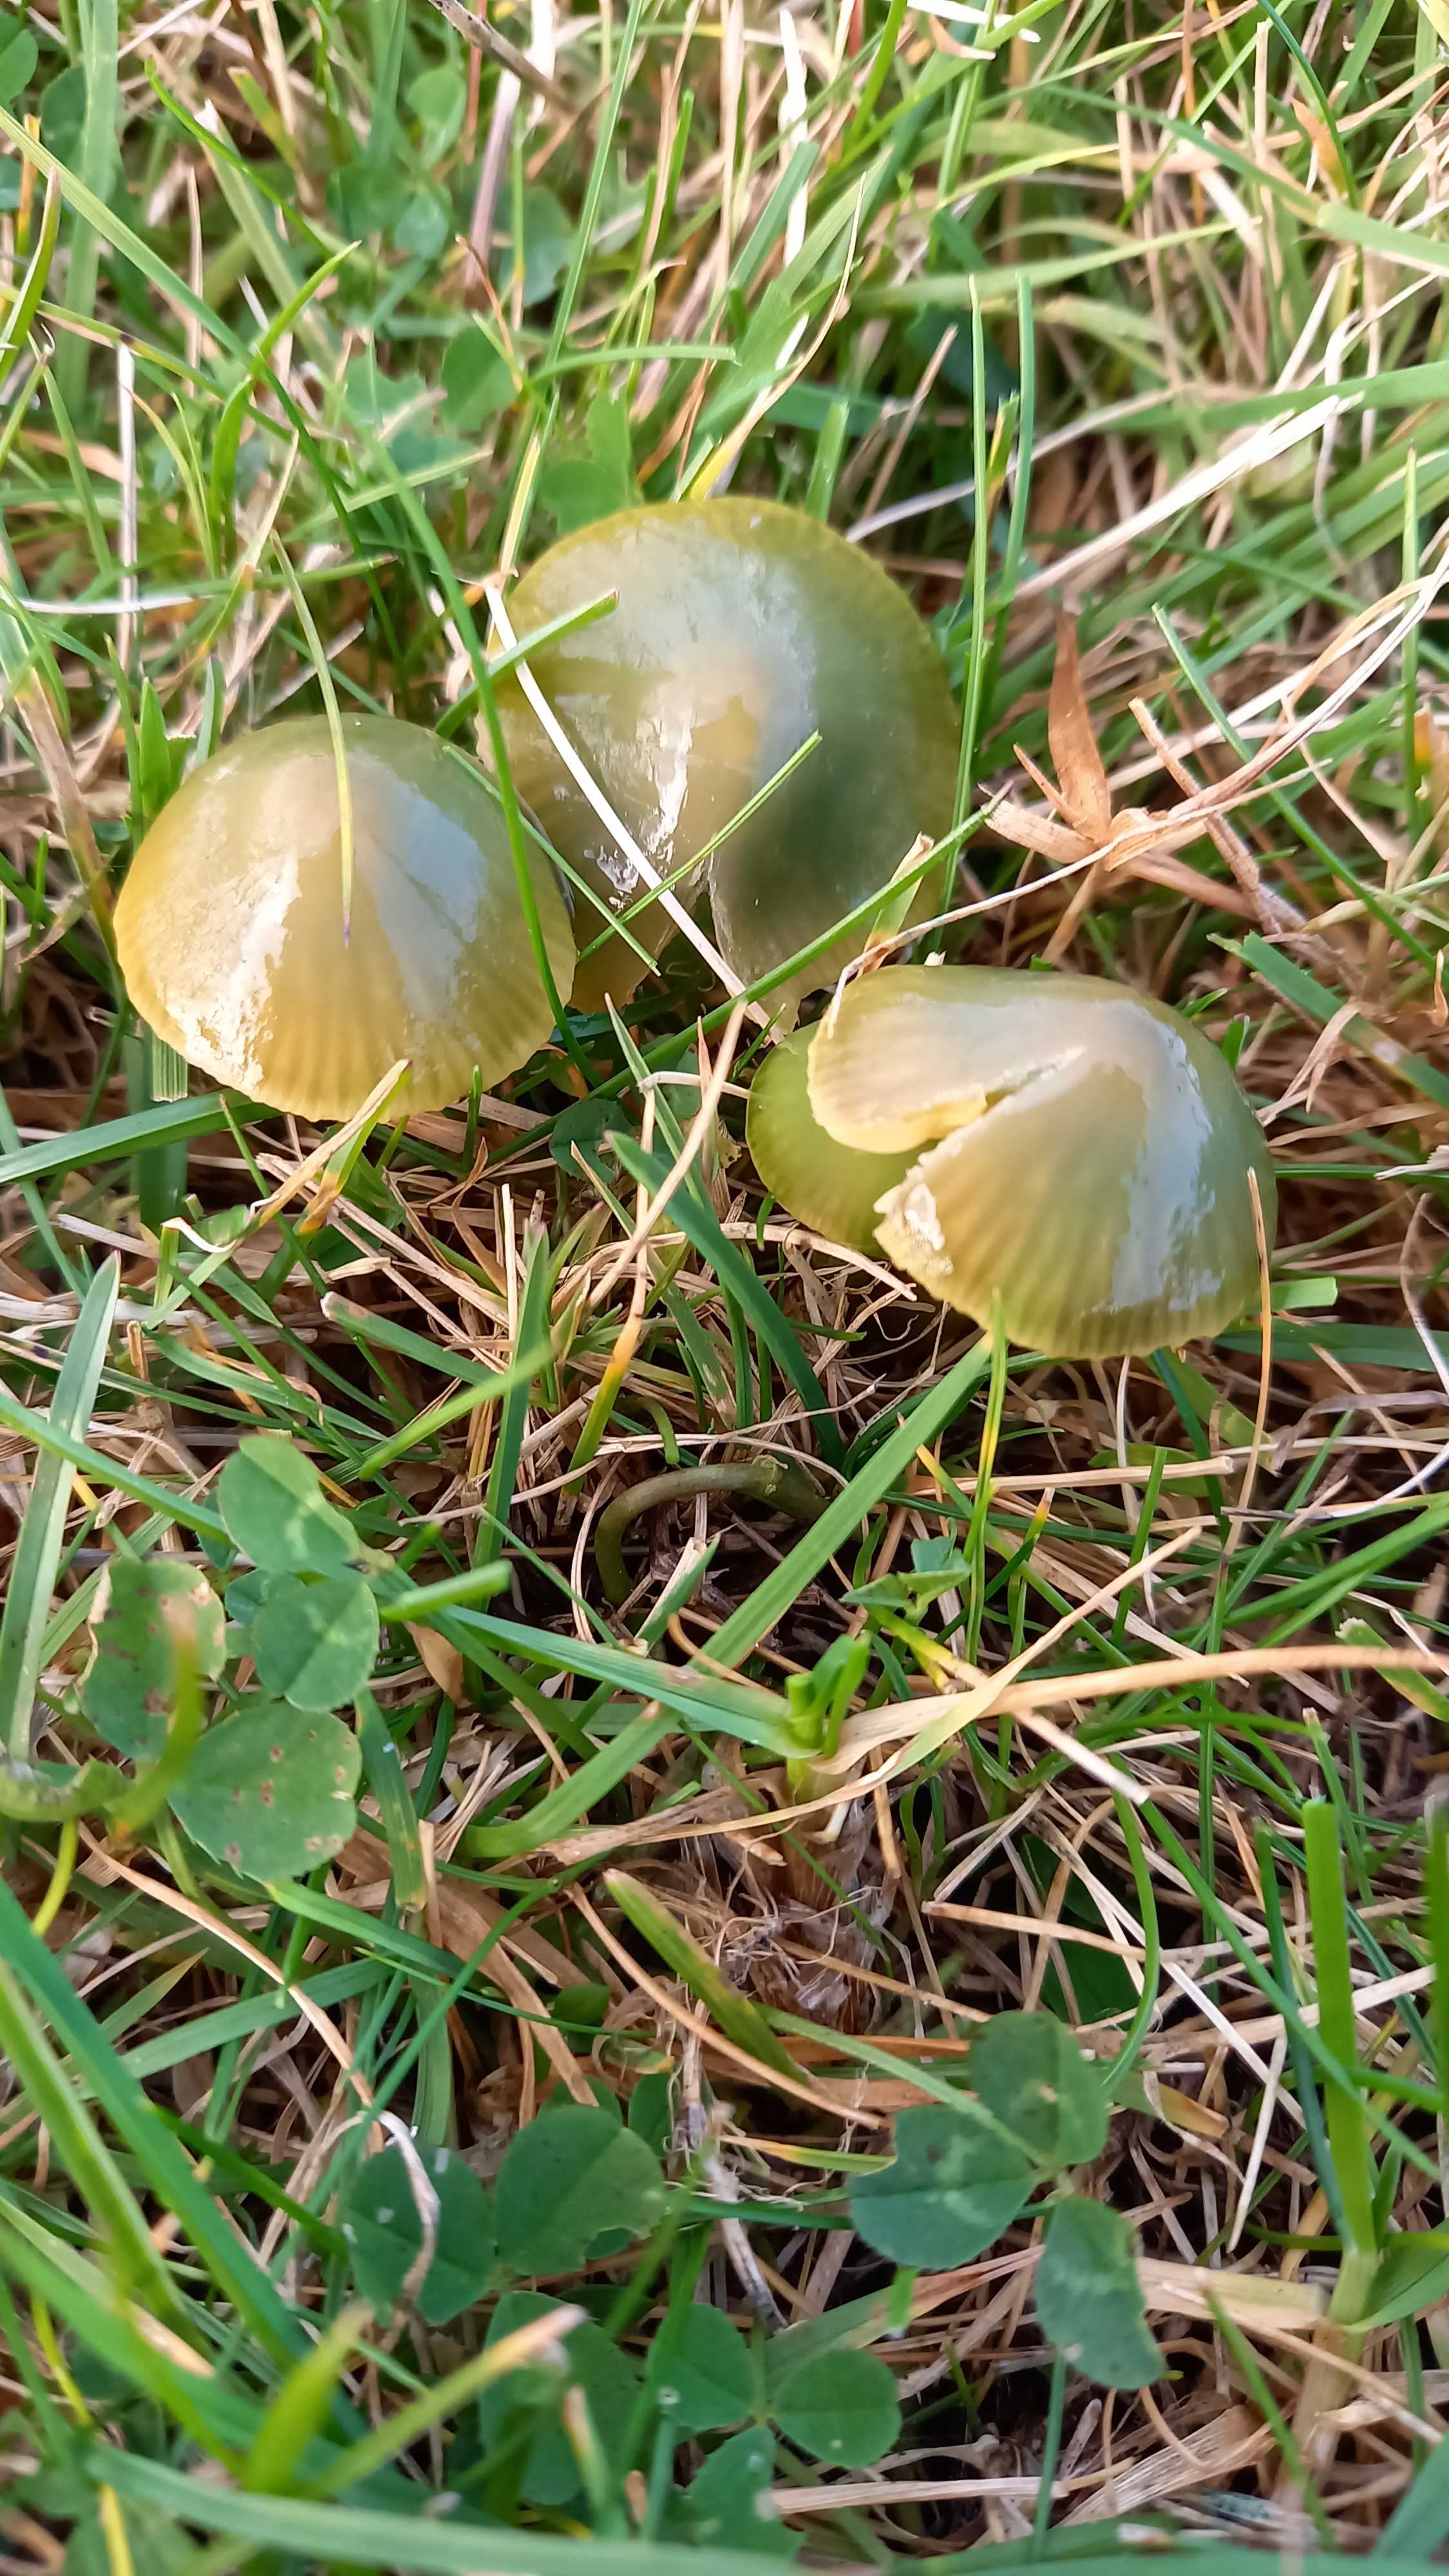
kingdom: Fungi
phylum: Basidiomycota
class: Agaricomycetes
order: Agaricales
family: Hygrophoraceae
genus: Gliophorus
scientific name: Gliophorus psittacinus
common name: papegøje-vokshat
